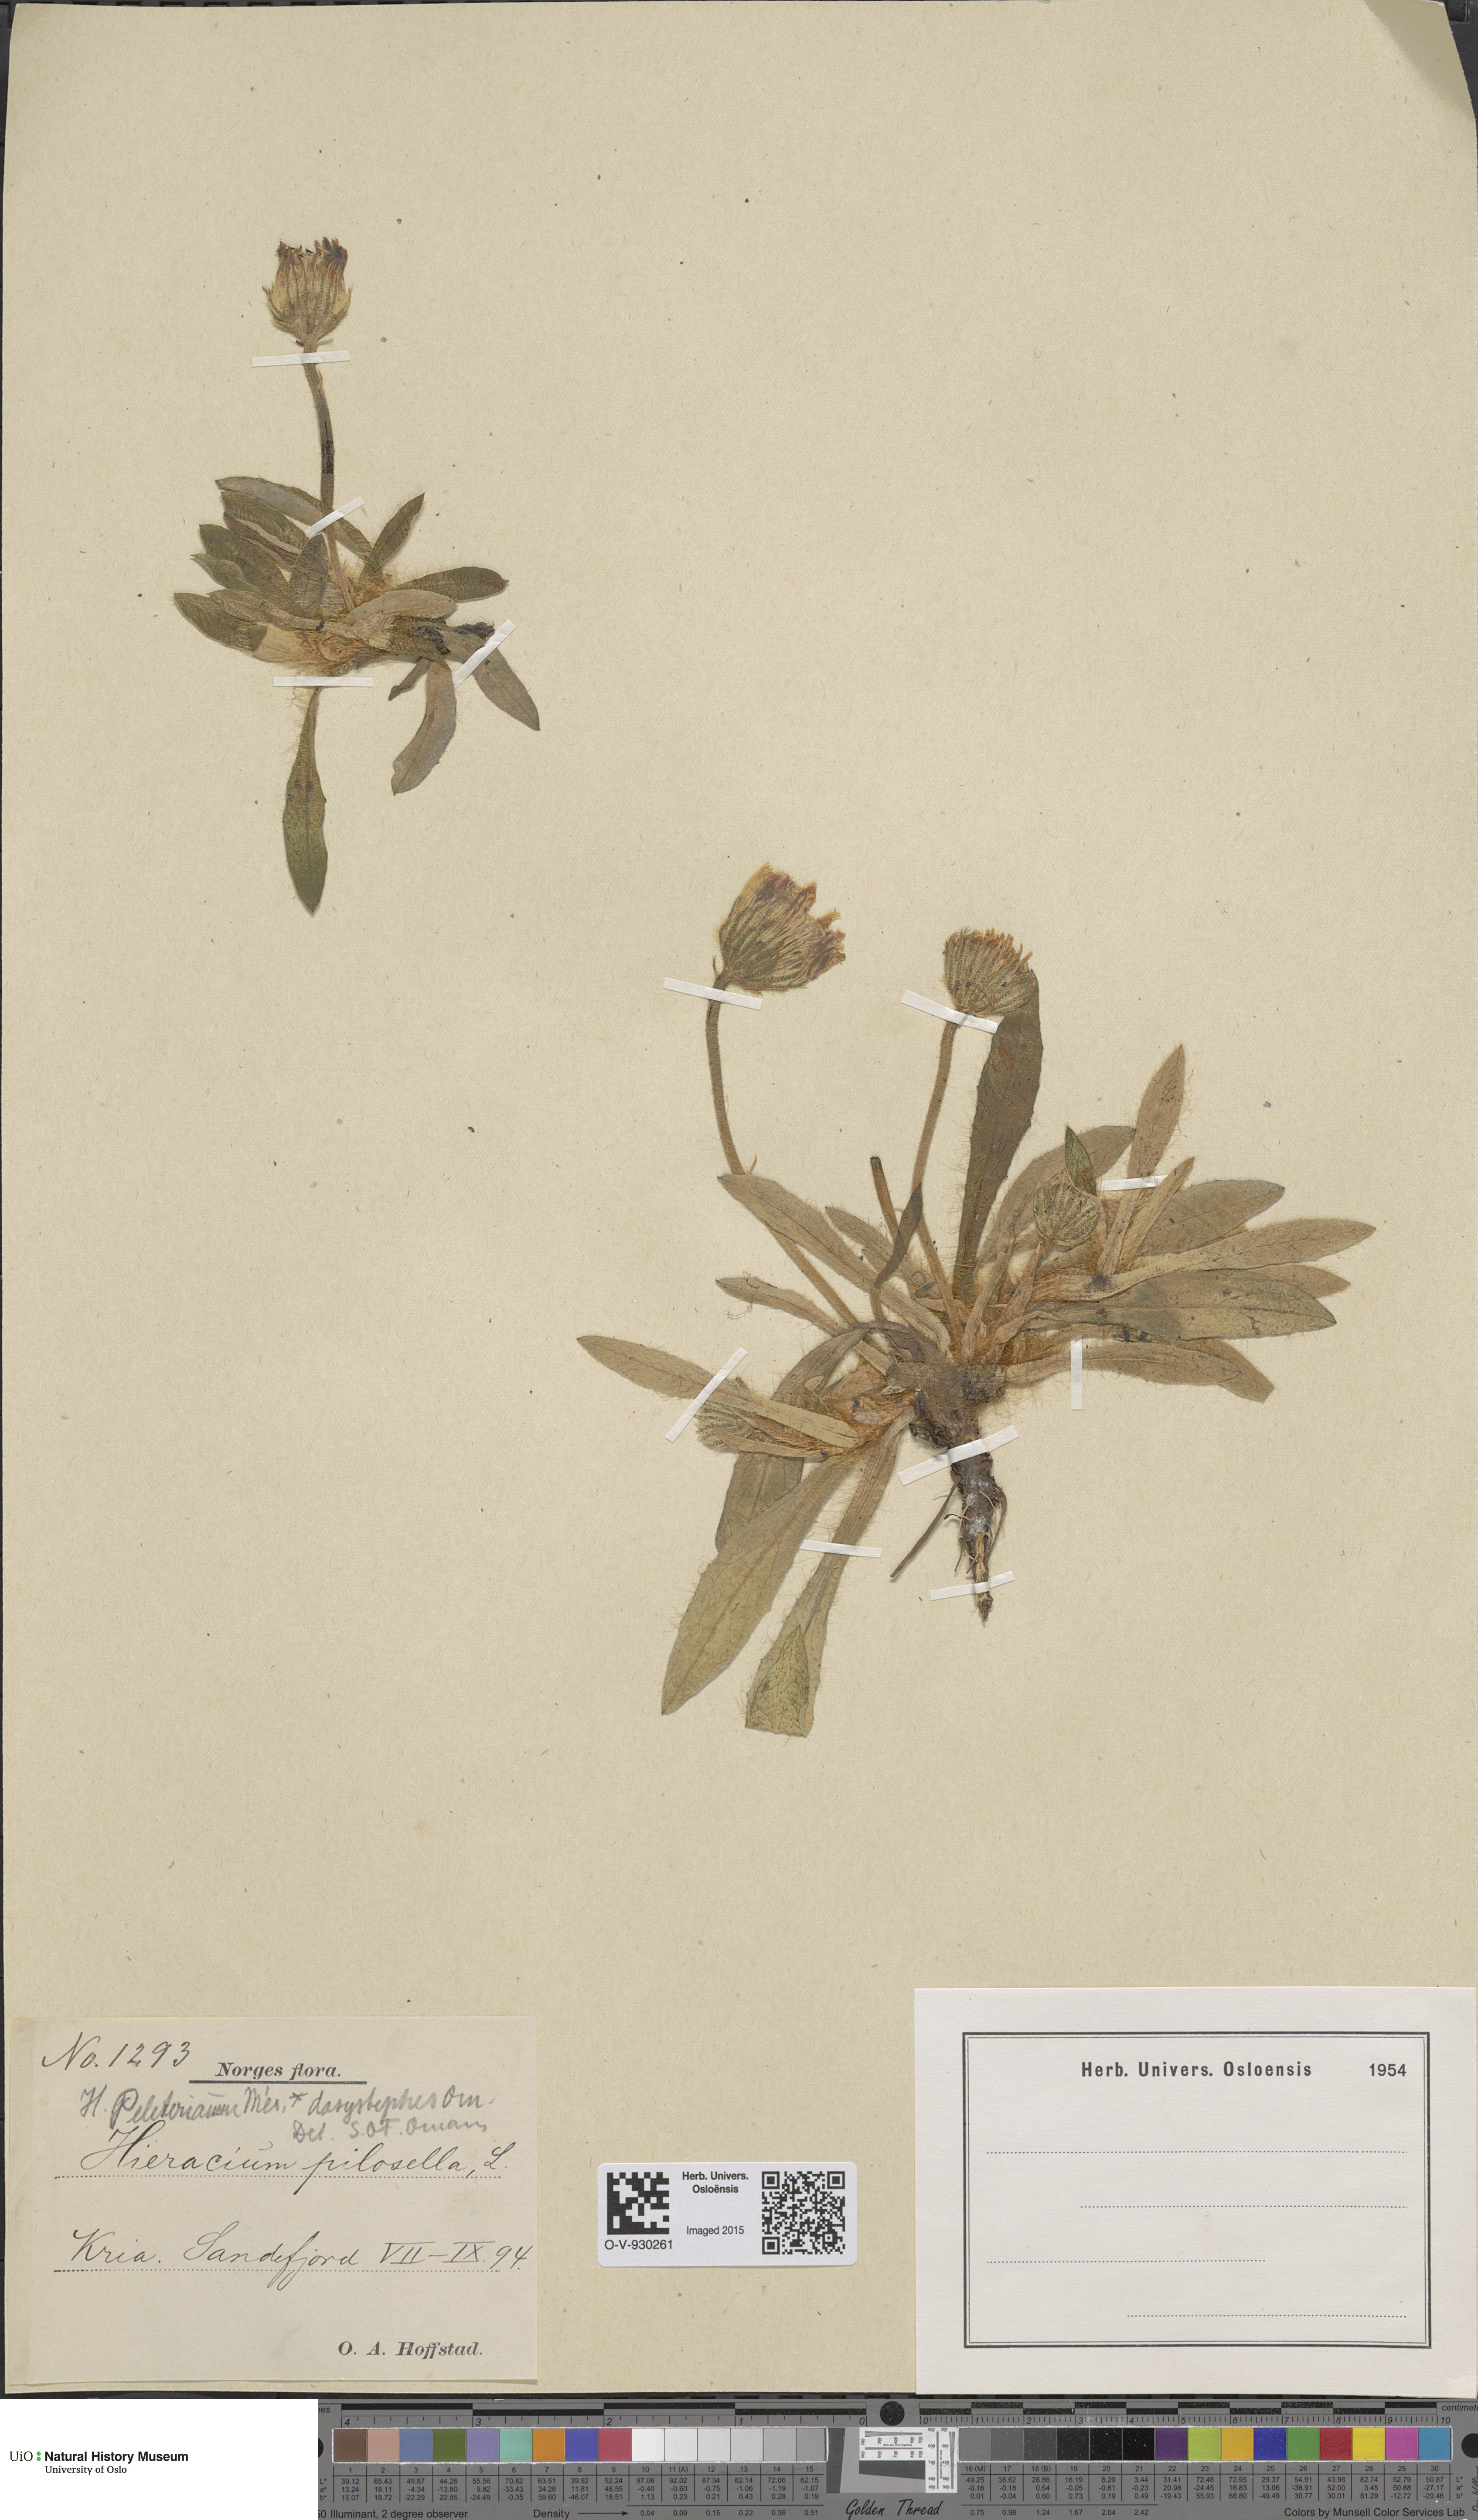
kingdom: Plantae
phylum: Tracheophyta
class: Magnoliopsida
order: Asterales
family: Asteraceae
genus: Pilosella
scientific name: Pilosella peleteriana
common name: Shaggy mouse-ear-hawkweed
